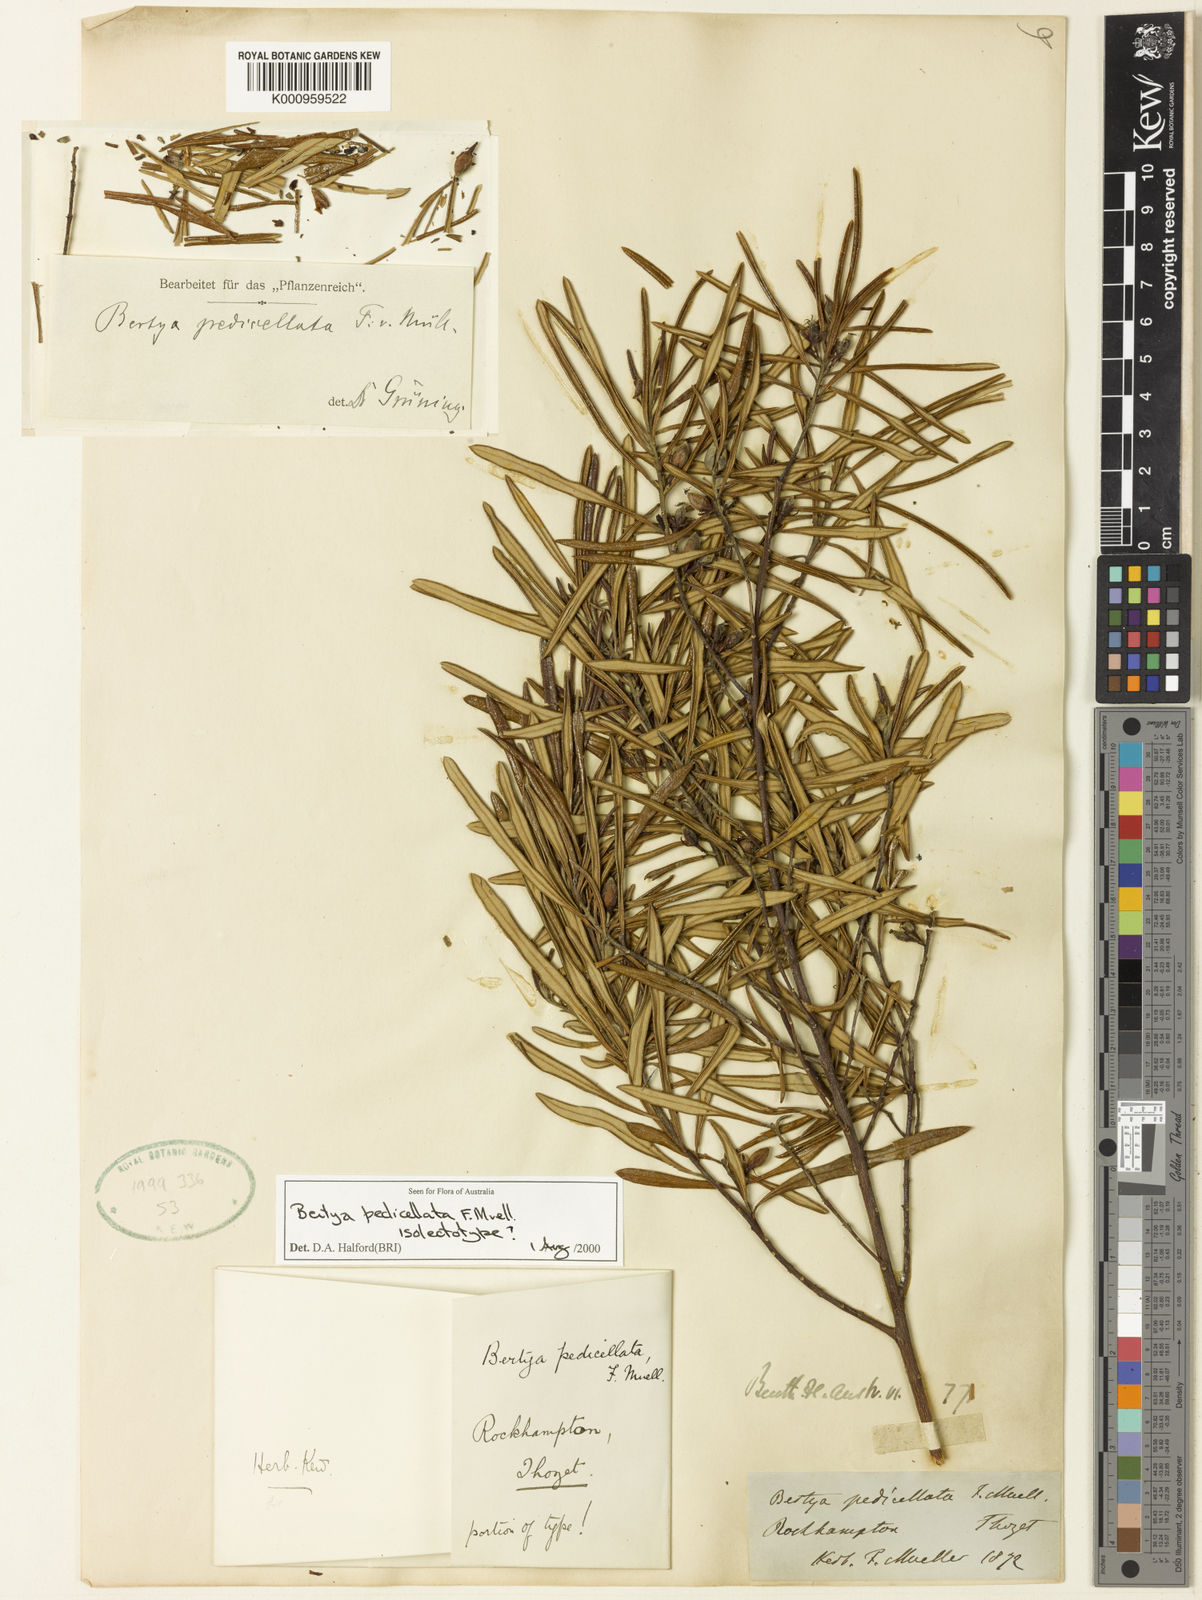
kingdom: Plantae
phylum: Tracheophyta
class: Magnoliopsida
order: Malpighiales
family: Euphorbiaceae
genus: Bertya
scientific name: Bertya pedicellata
